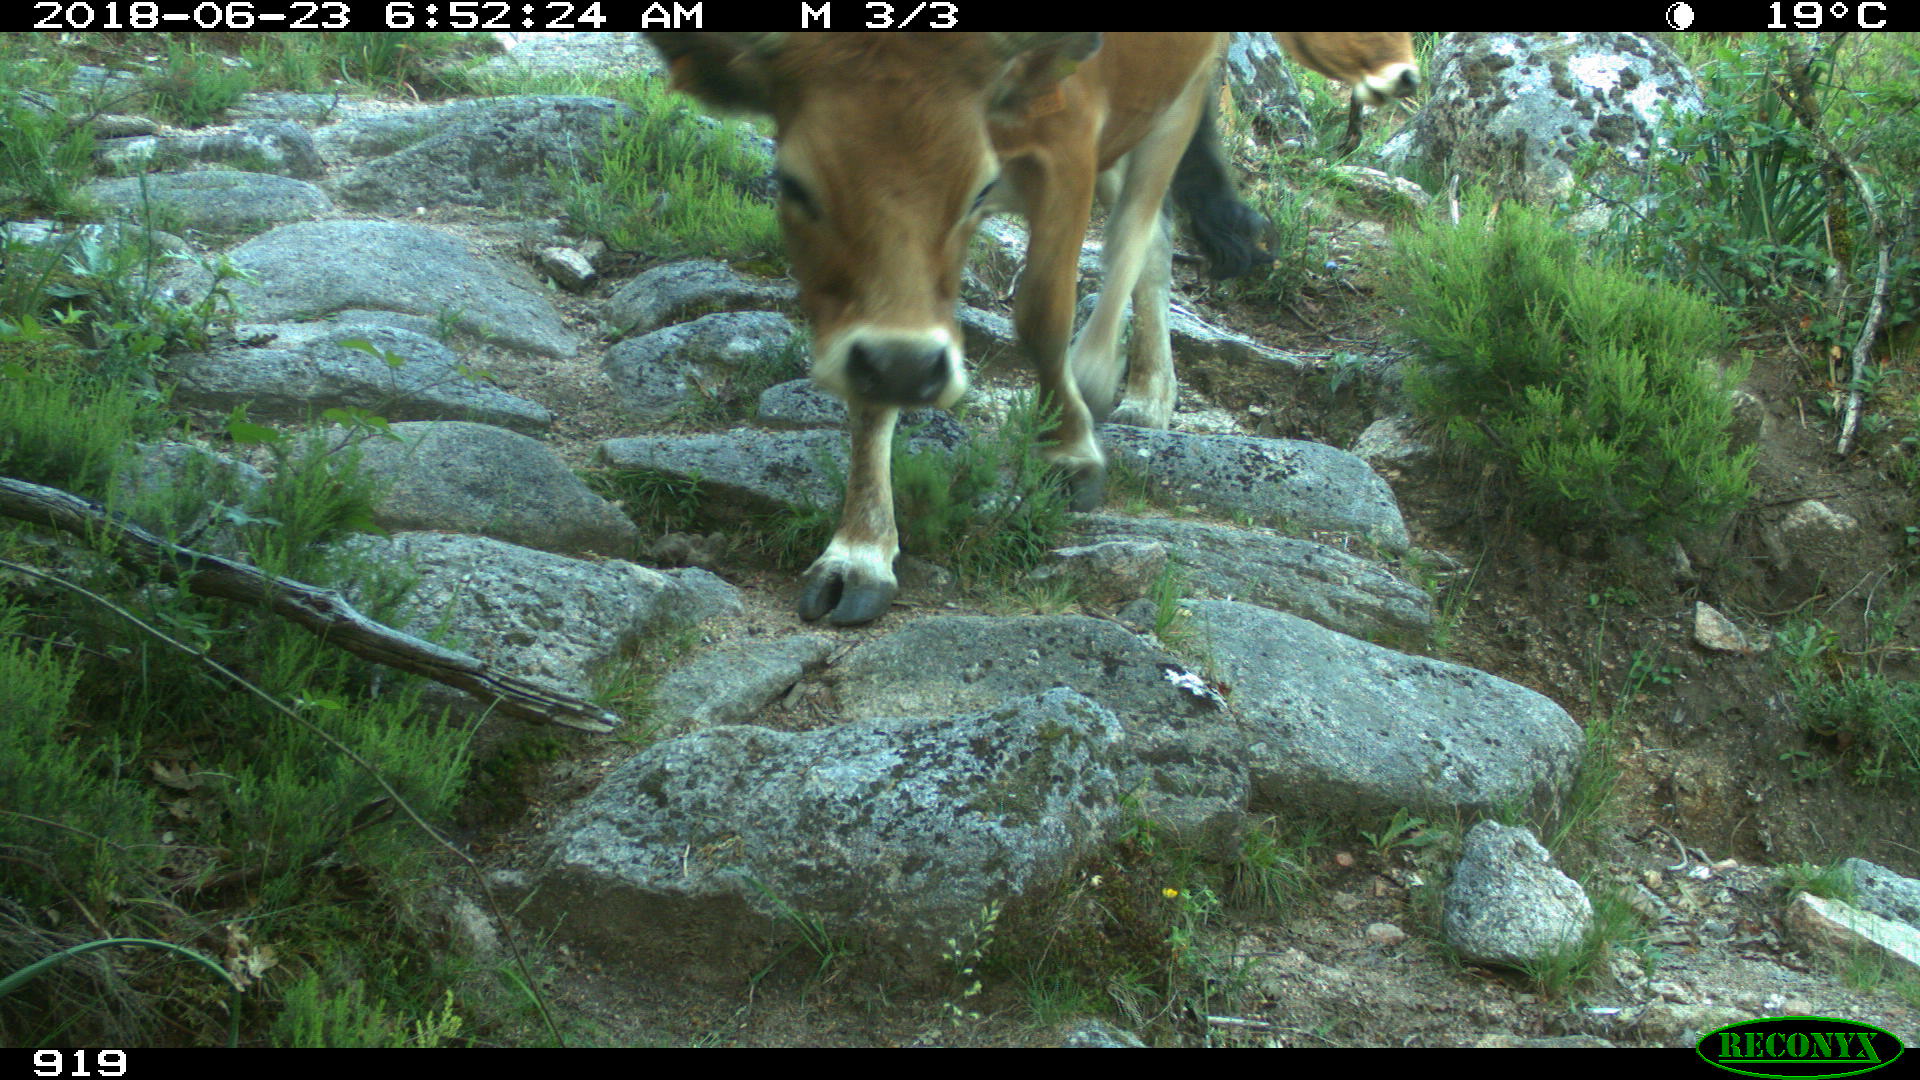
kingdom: Animalia
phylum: Chordata
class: Mammalia
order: Artiodactyla
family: Bovidae
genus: Bos
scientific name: Bos taurus
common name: Domesticated cattle
